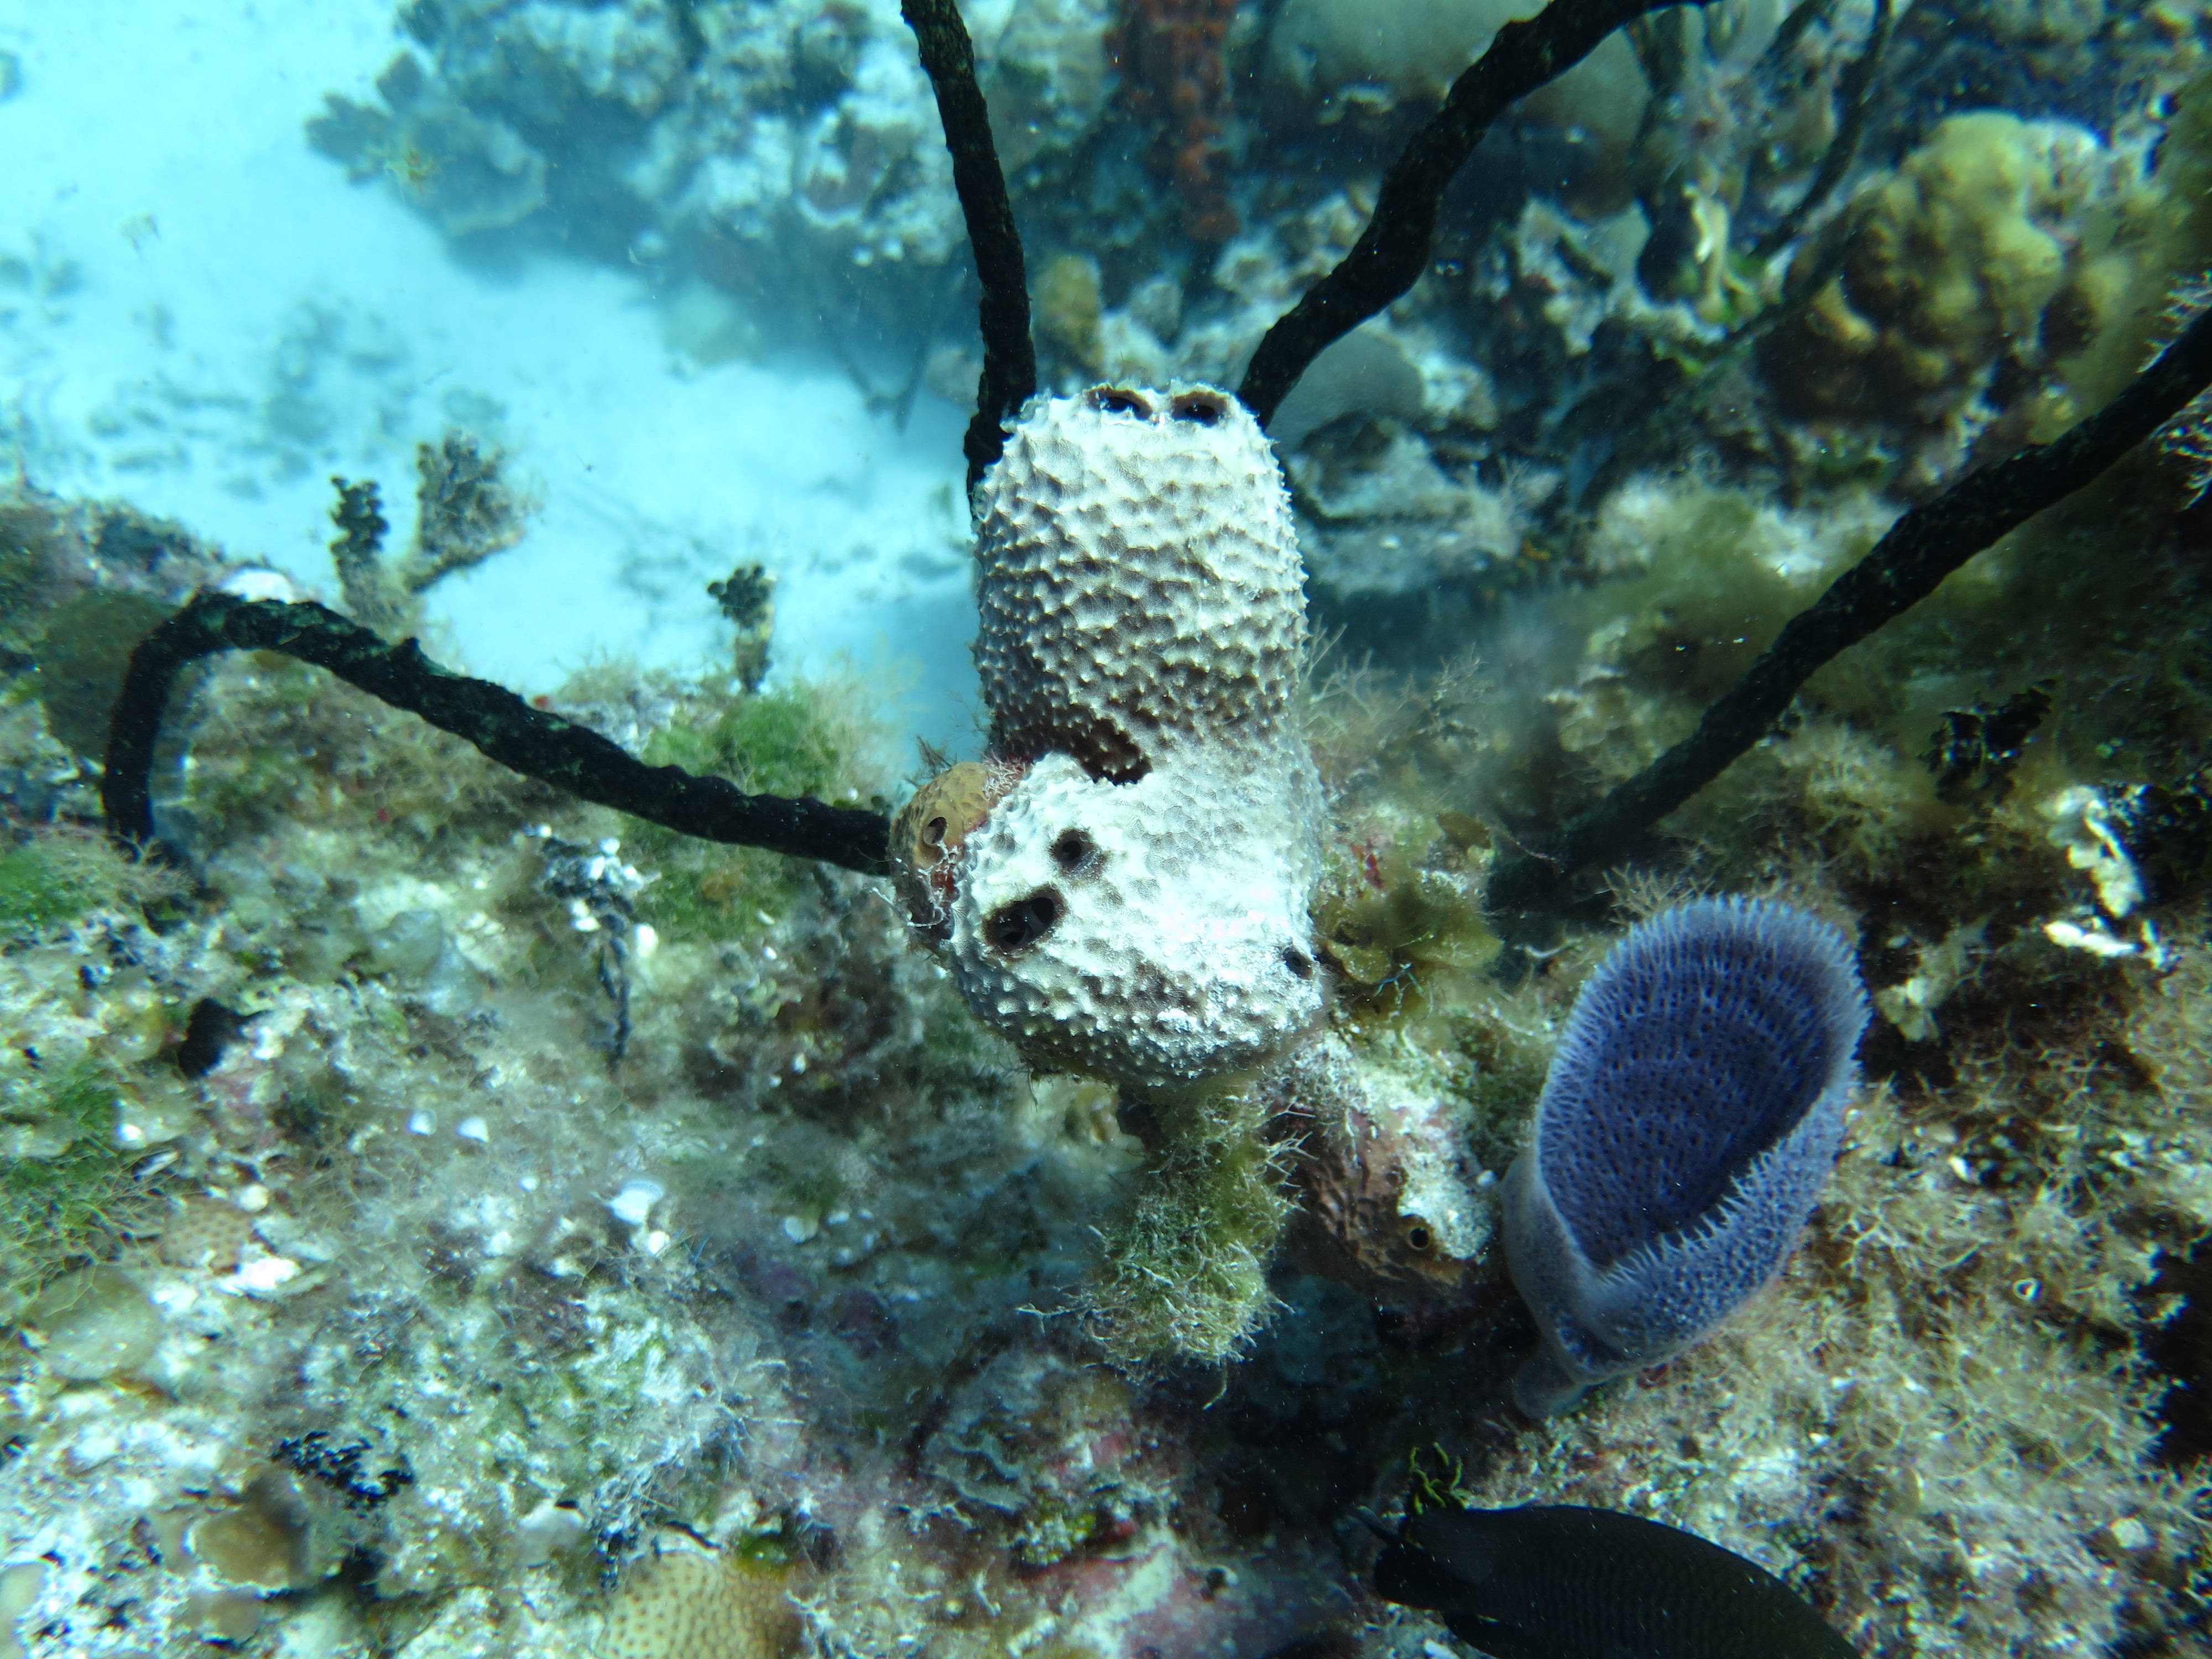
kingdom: Animalia
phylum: Porifera
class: Demospongiae
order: Dictyoceratida
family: Irciniidae
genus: Ircinia
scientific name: Ircinia strobilina
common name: Cake sponge
